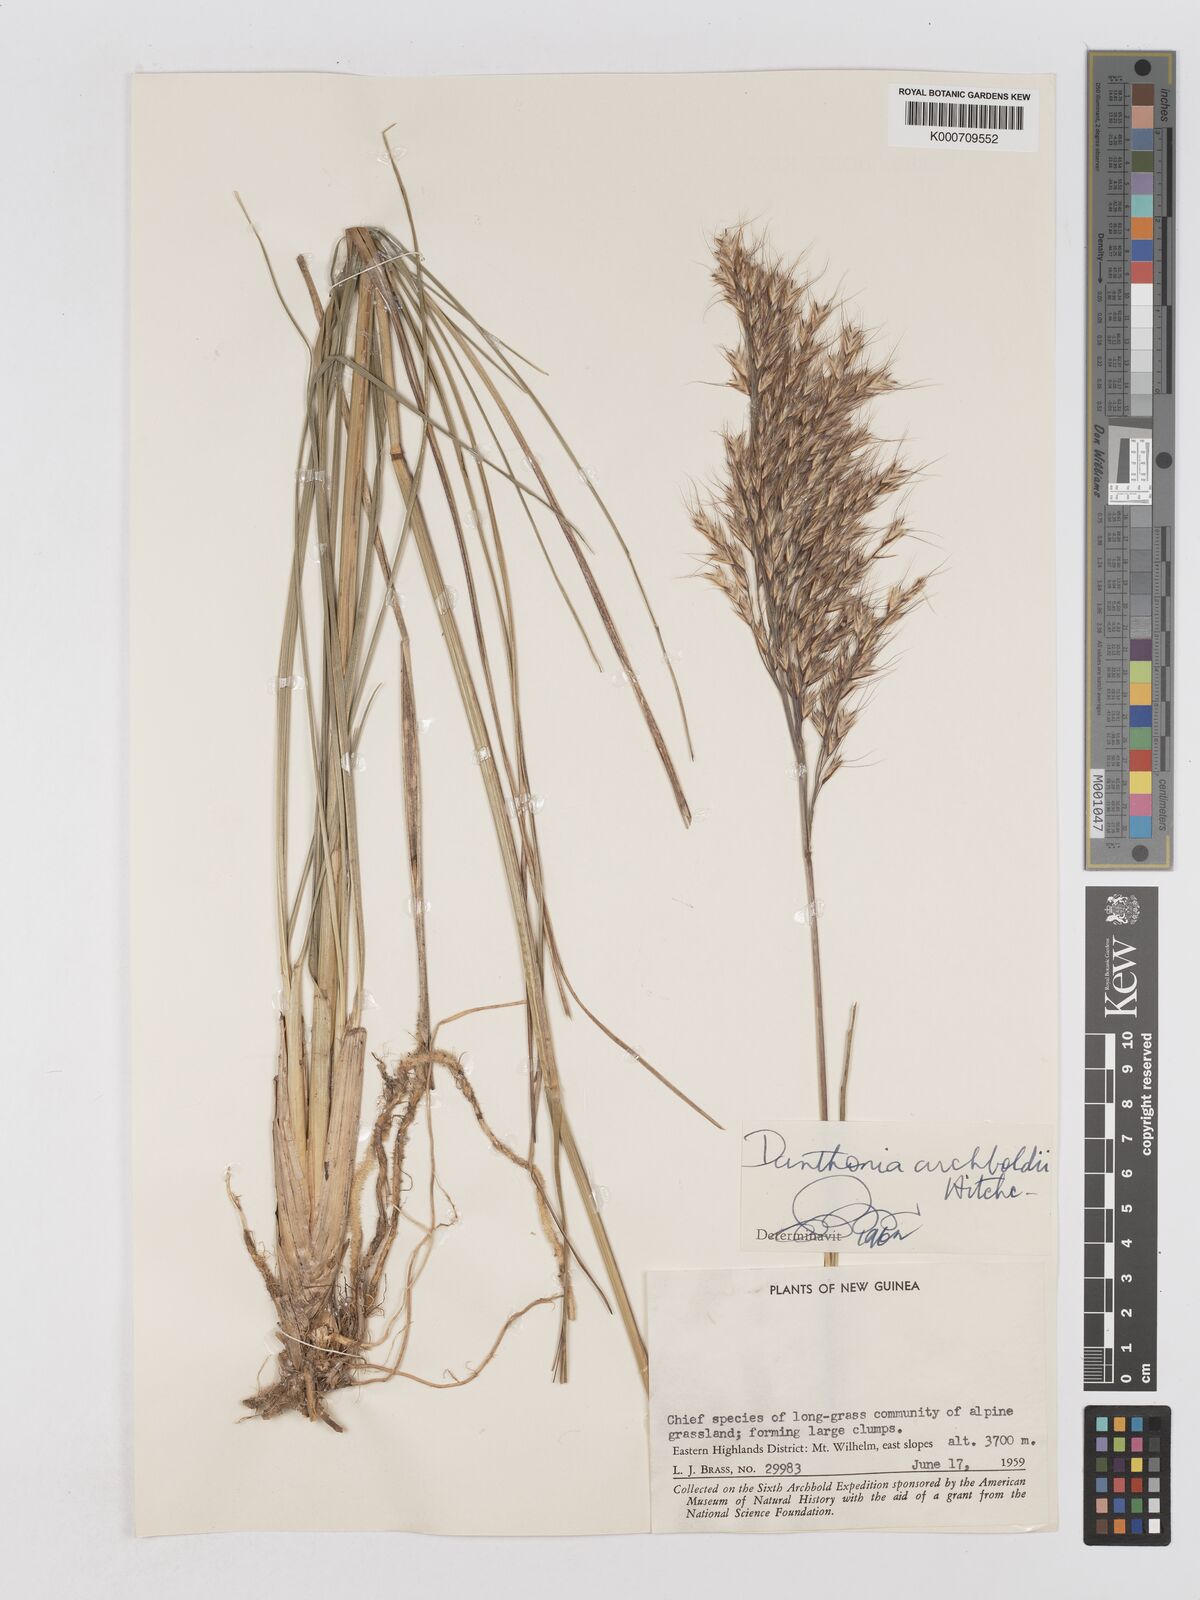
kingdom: Plantae
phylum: Tracheophyta
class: Liliopsida
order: Poales
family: Poaceae
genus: Chimaerochloa
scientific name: Chimaerochloa archboldii
